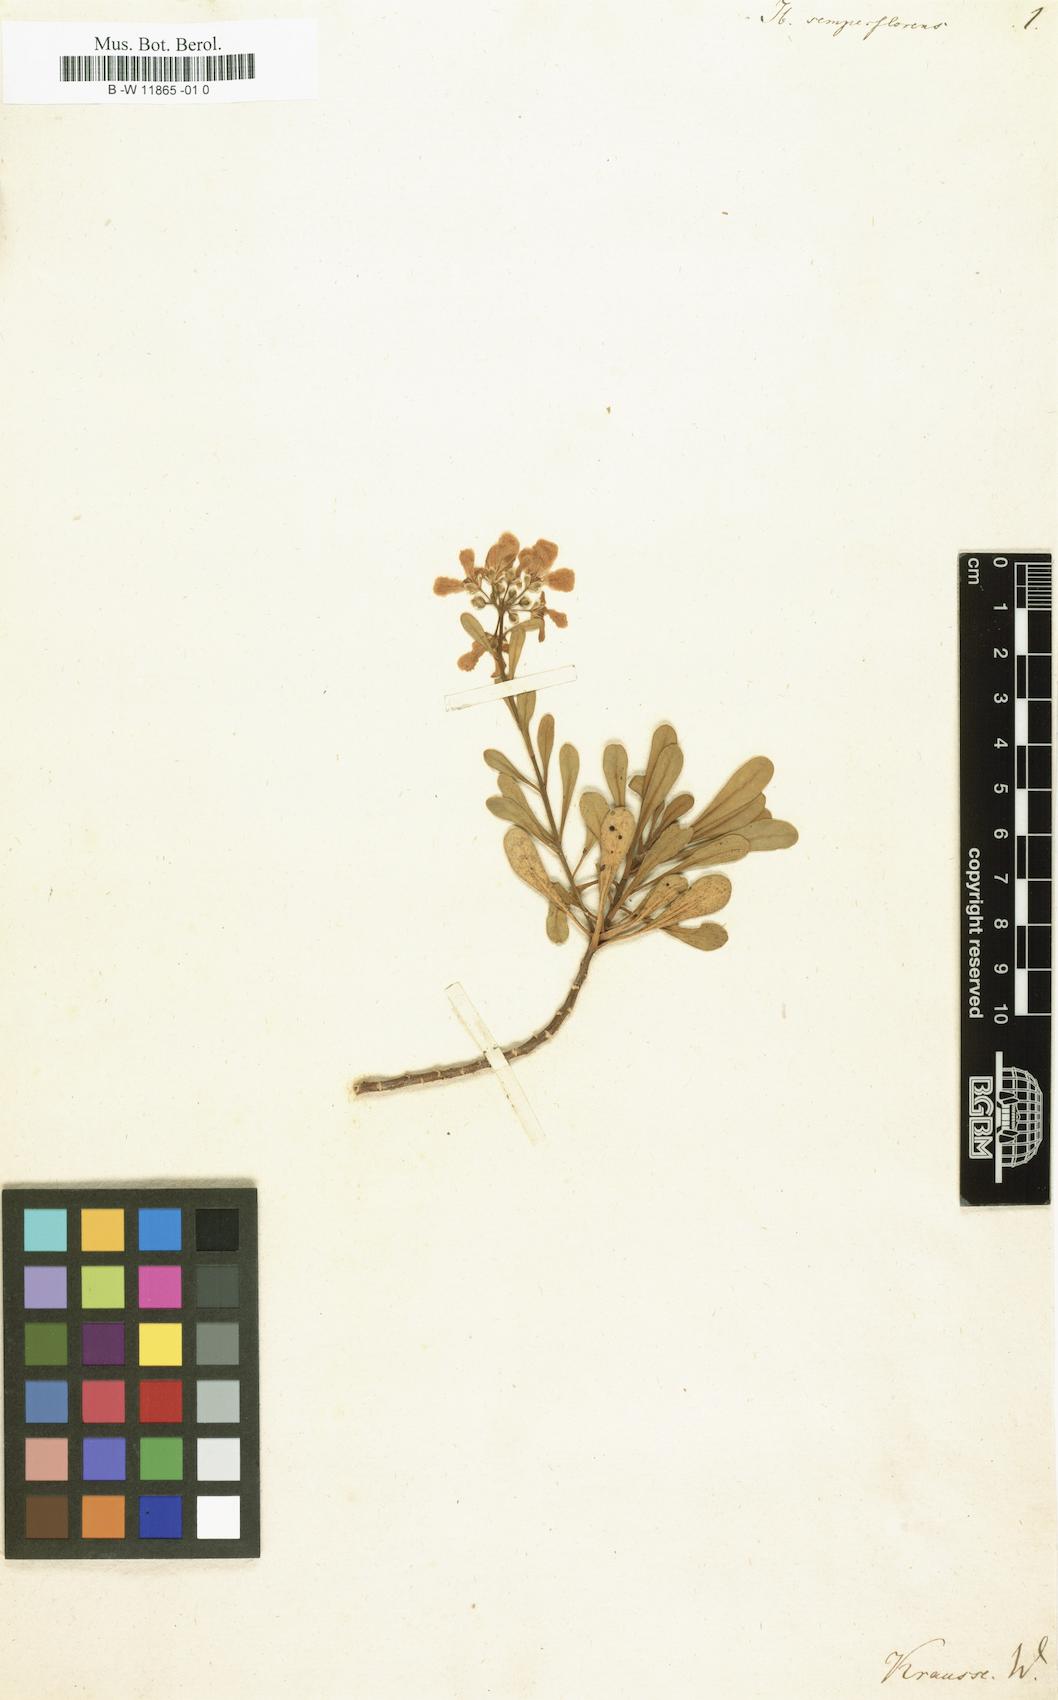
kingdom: Plantae
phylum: Tracheophyta
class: Magnoliopsida
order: Brassicales
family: Brassicaceae
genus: Iberis
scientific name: Iberis semperflorens
